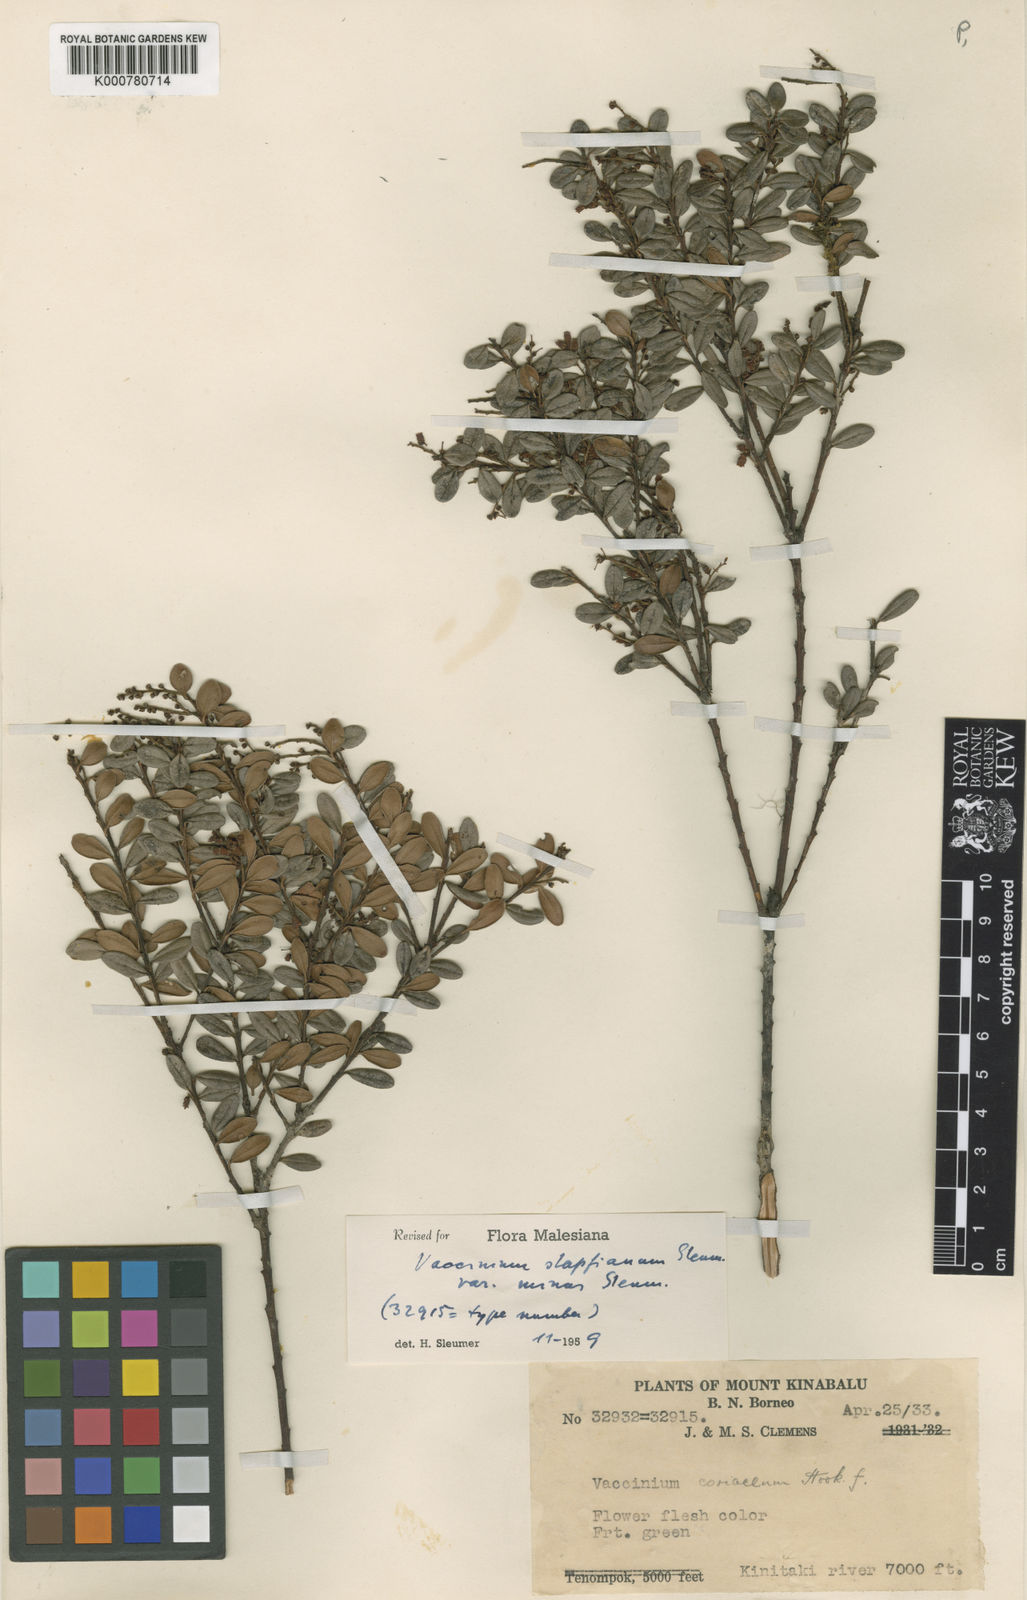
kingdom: Plantae
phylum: Tracheophyta
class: Magnoliopsida
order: Ericales
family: Ericaceae
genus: Vaccinium
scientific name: Vaccinium coriaceum
